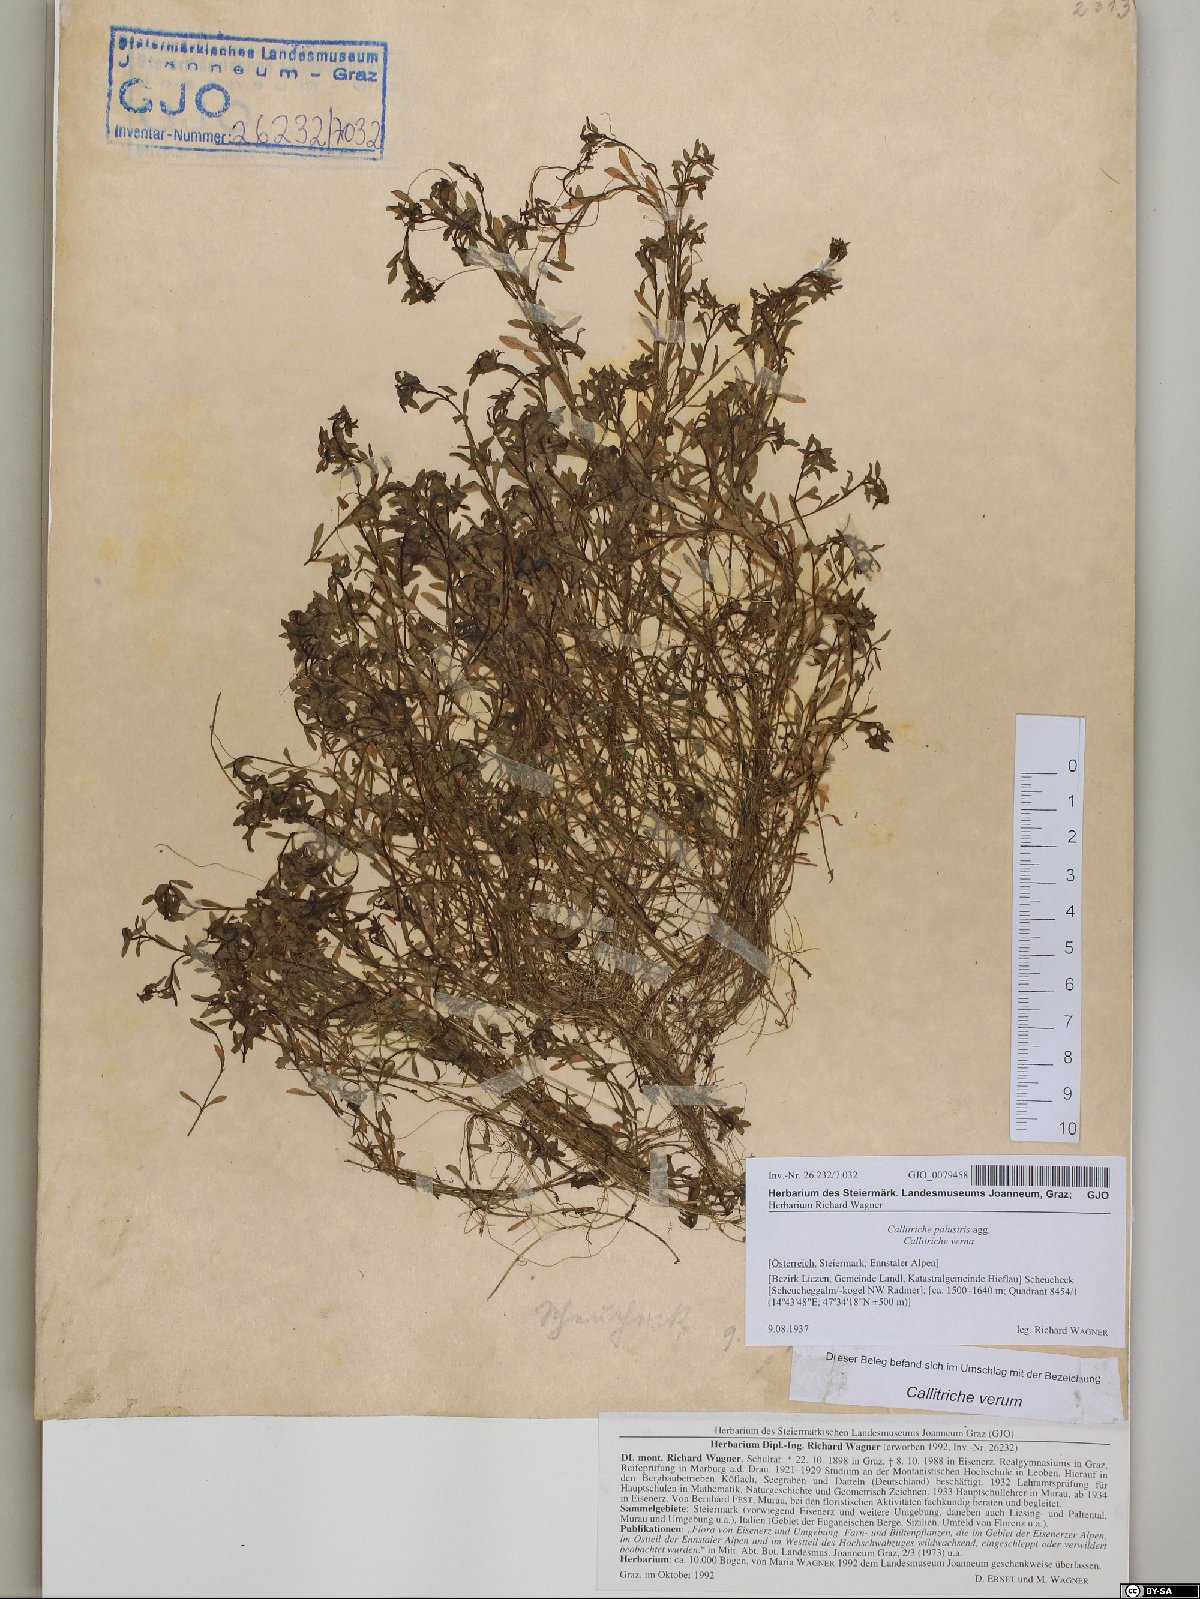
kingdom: Plantae
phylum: Tracheophyta
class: Magnoliopsida
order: Lamiales
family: Plantaginaceae
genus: Callitriche
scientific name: Callitriche palustris
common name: Spring water-starwort
